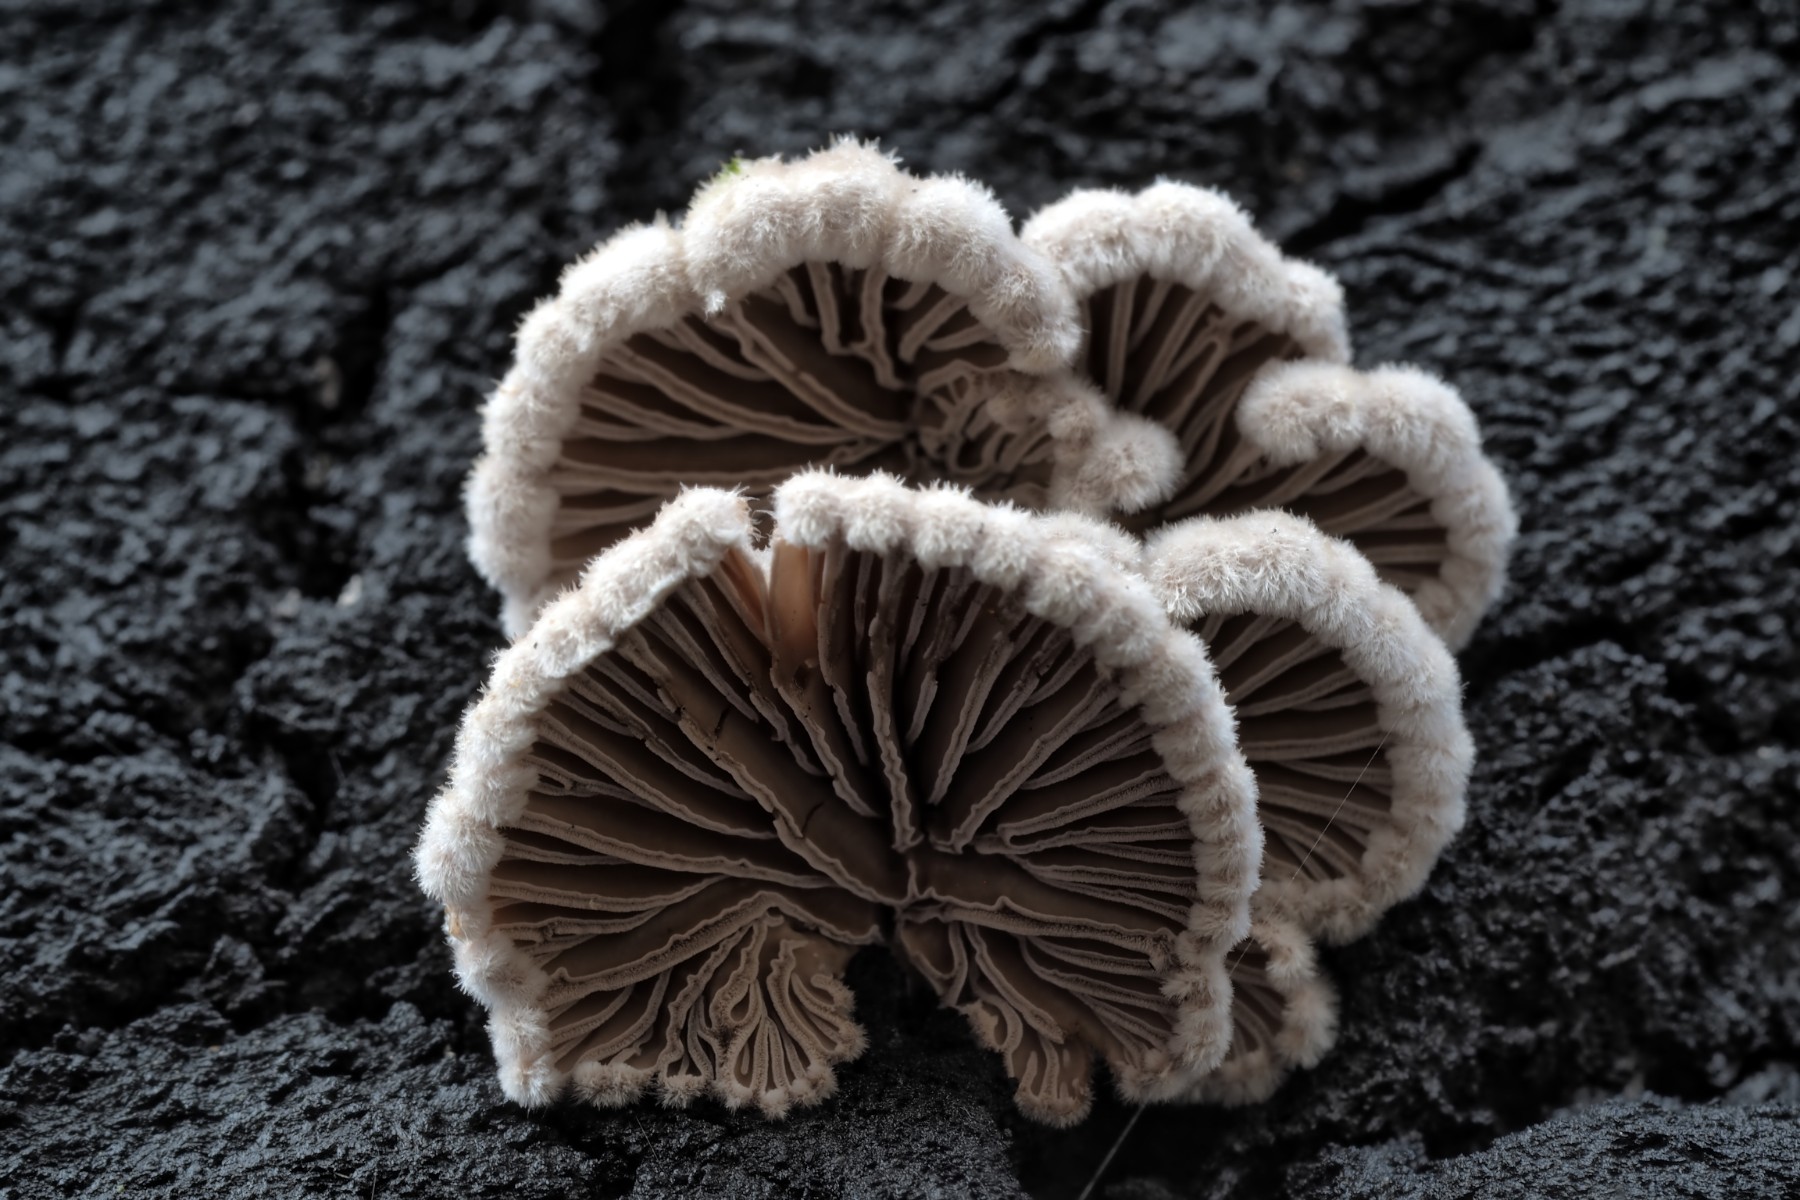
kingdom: Fungi
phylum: Basidiomycota
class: Agaricomycetes
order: Agaricales
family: Schizophyllaceae
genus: Schizophyllum
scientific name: Schizophyllum commune
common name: kløvblad
